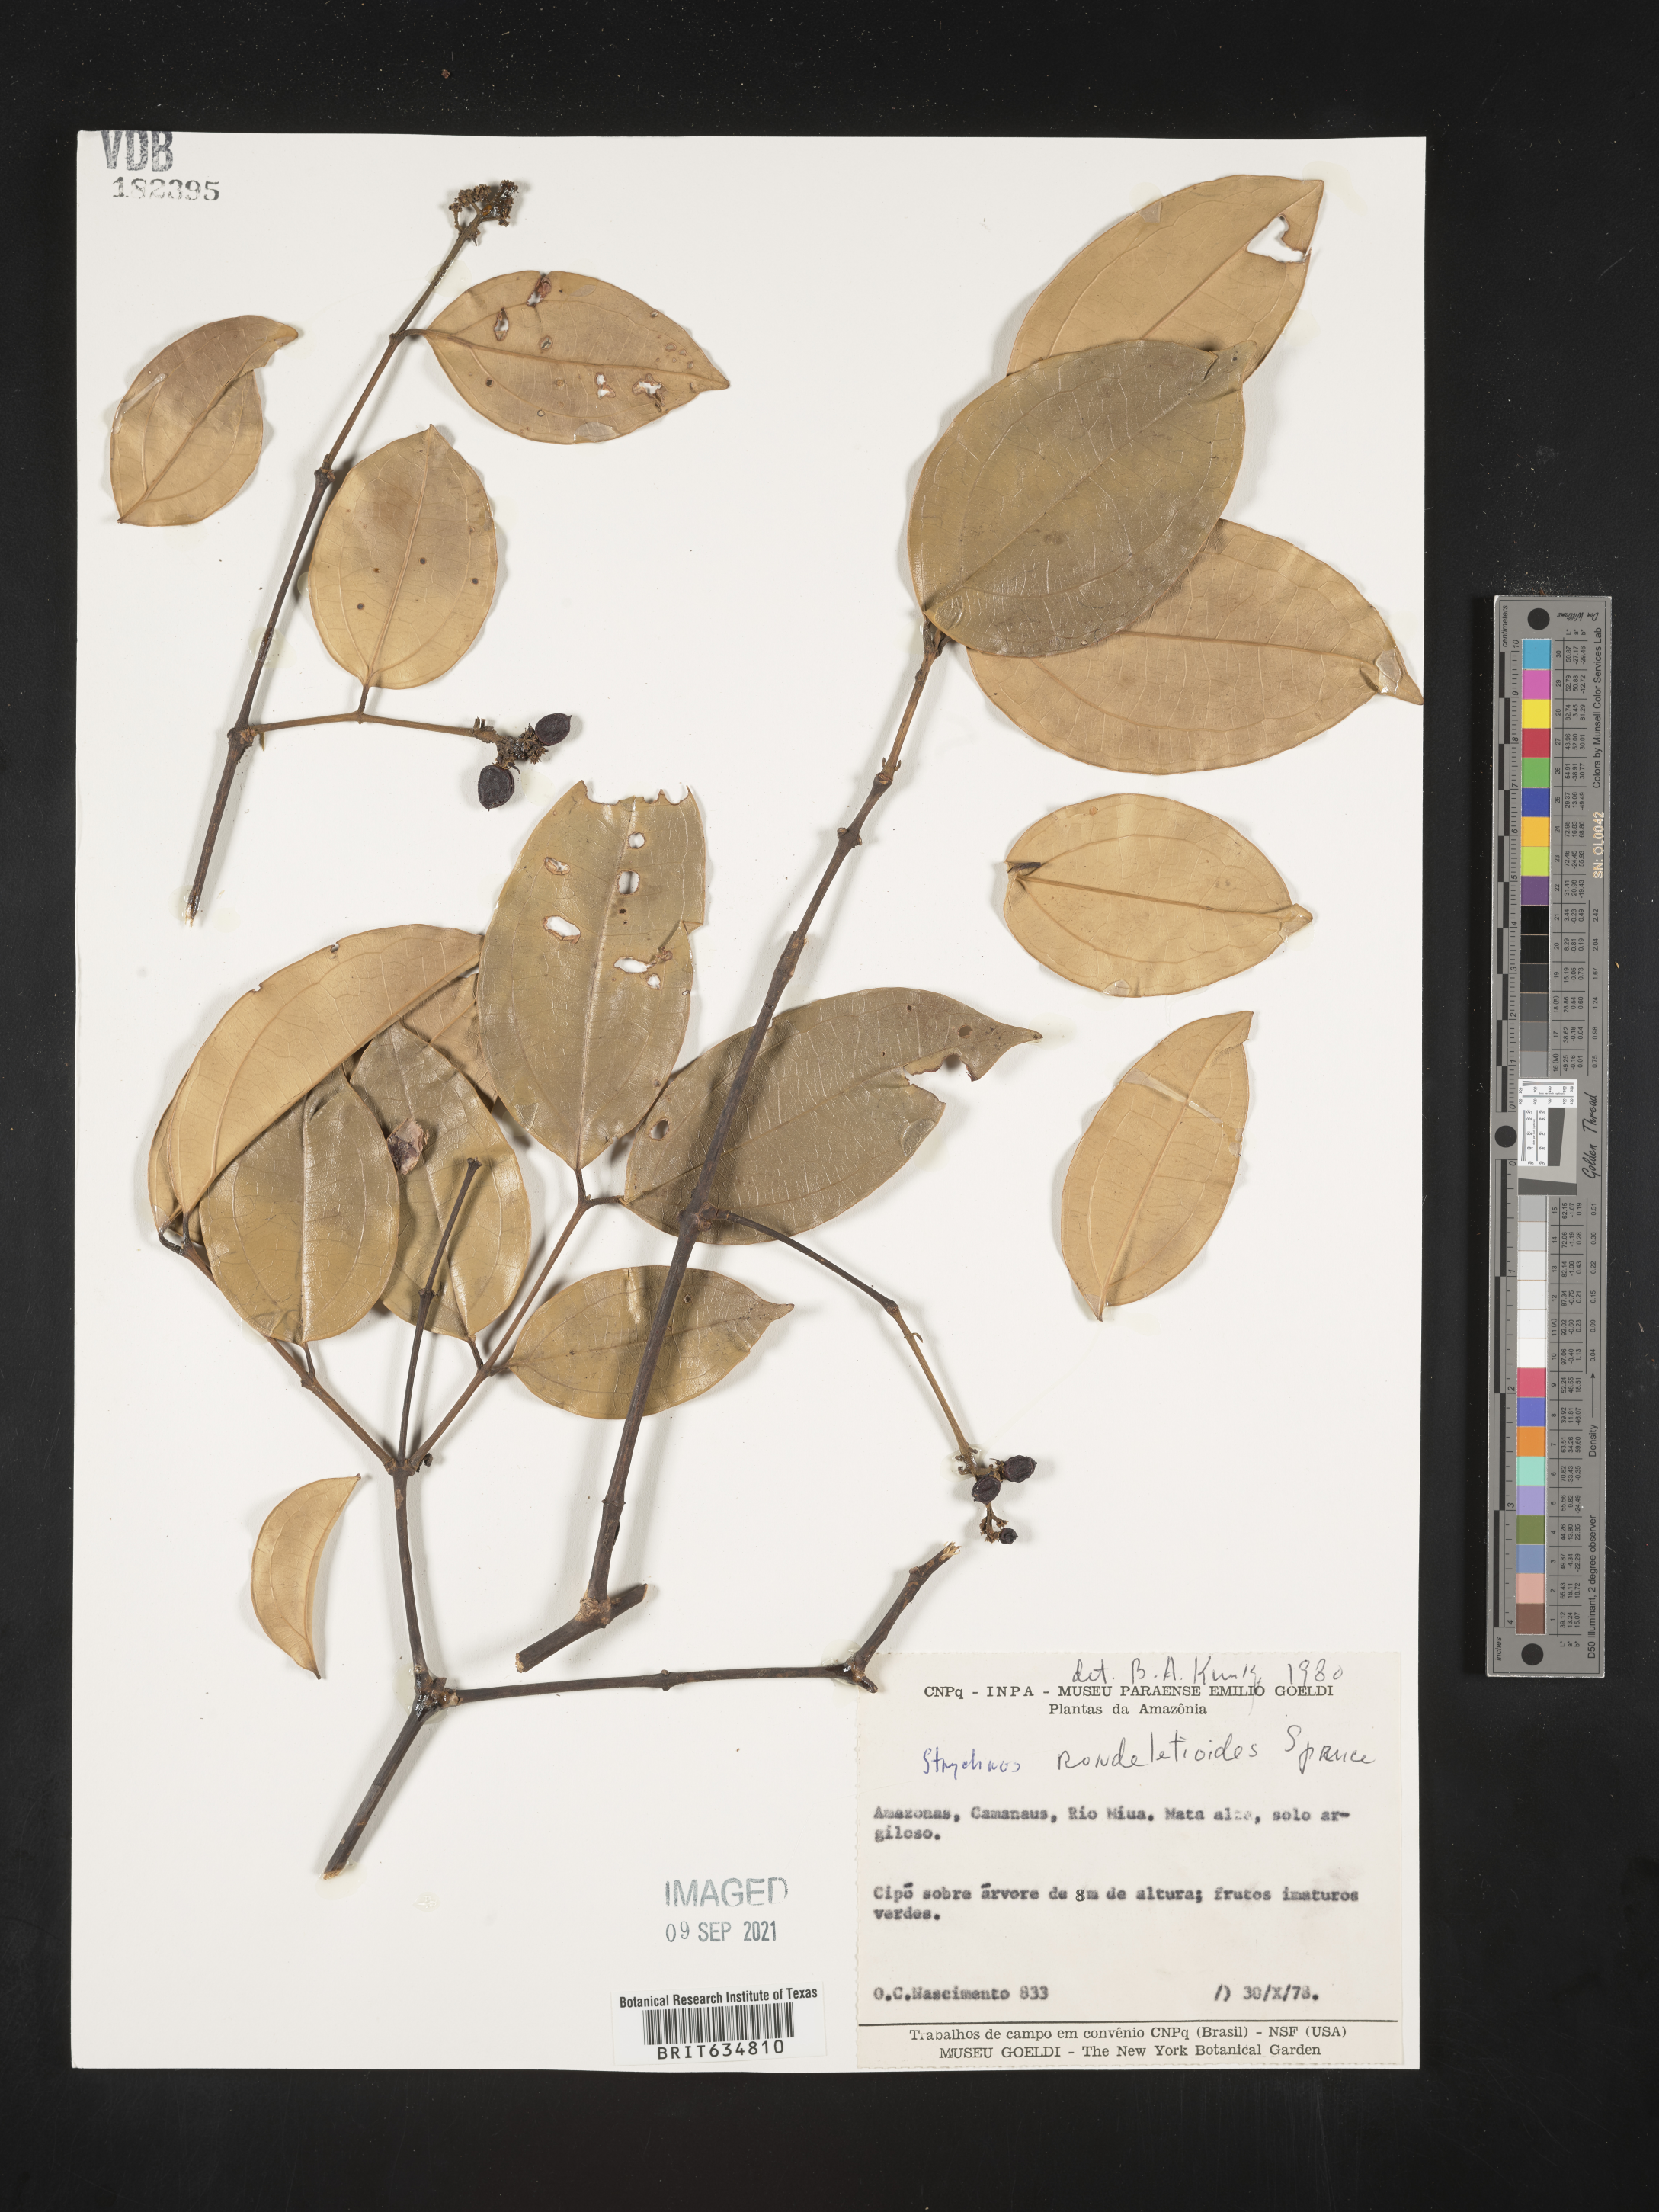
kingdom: Plantae
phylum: Tracheophyta
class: Magnoliopsida
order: Gentianales
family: Loganiaceae
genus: Strychnos
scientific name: Strychnos
